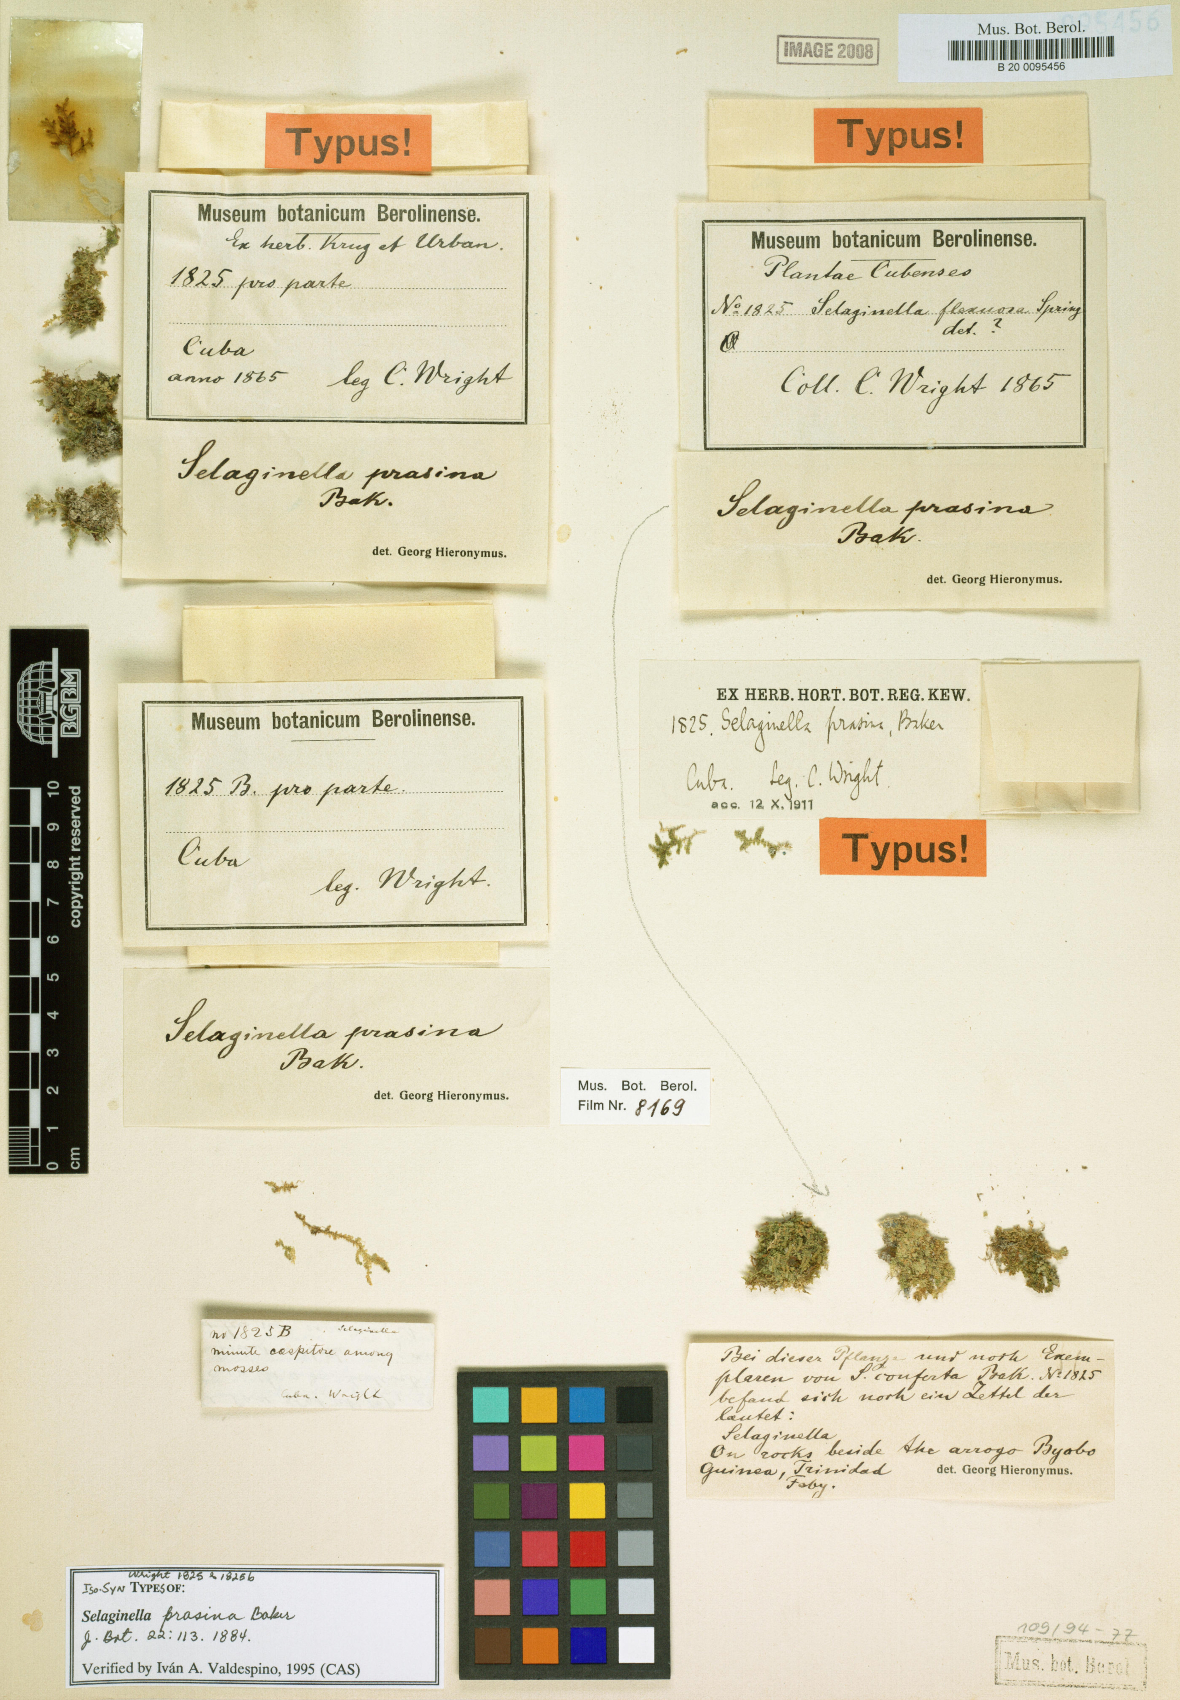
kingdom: Plantae
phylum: Tracheophyta
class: Lycopodiopsida
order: Selaginellales
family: Selaginellaceae
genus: Selaginella
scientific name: Selaginella prasina
